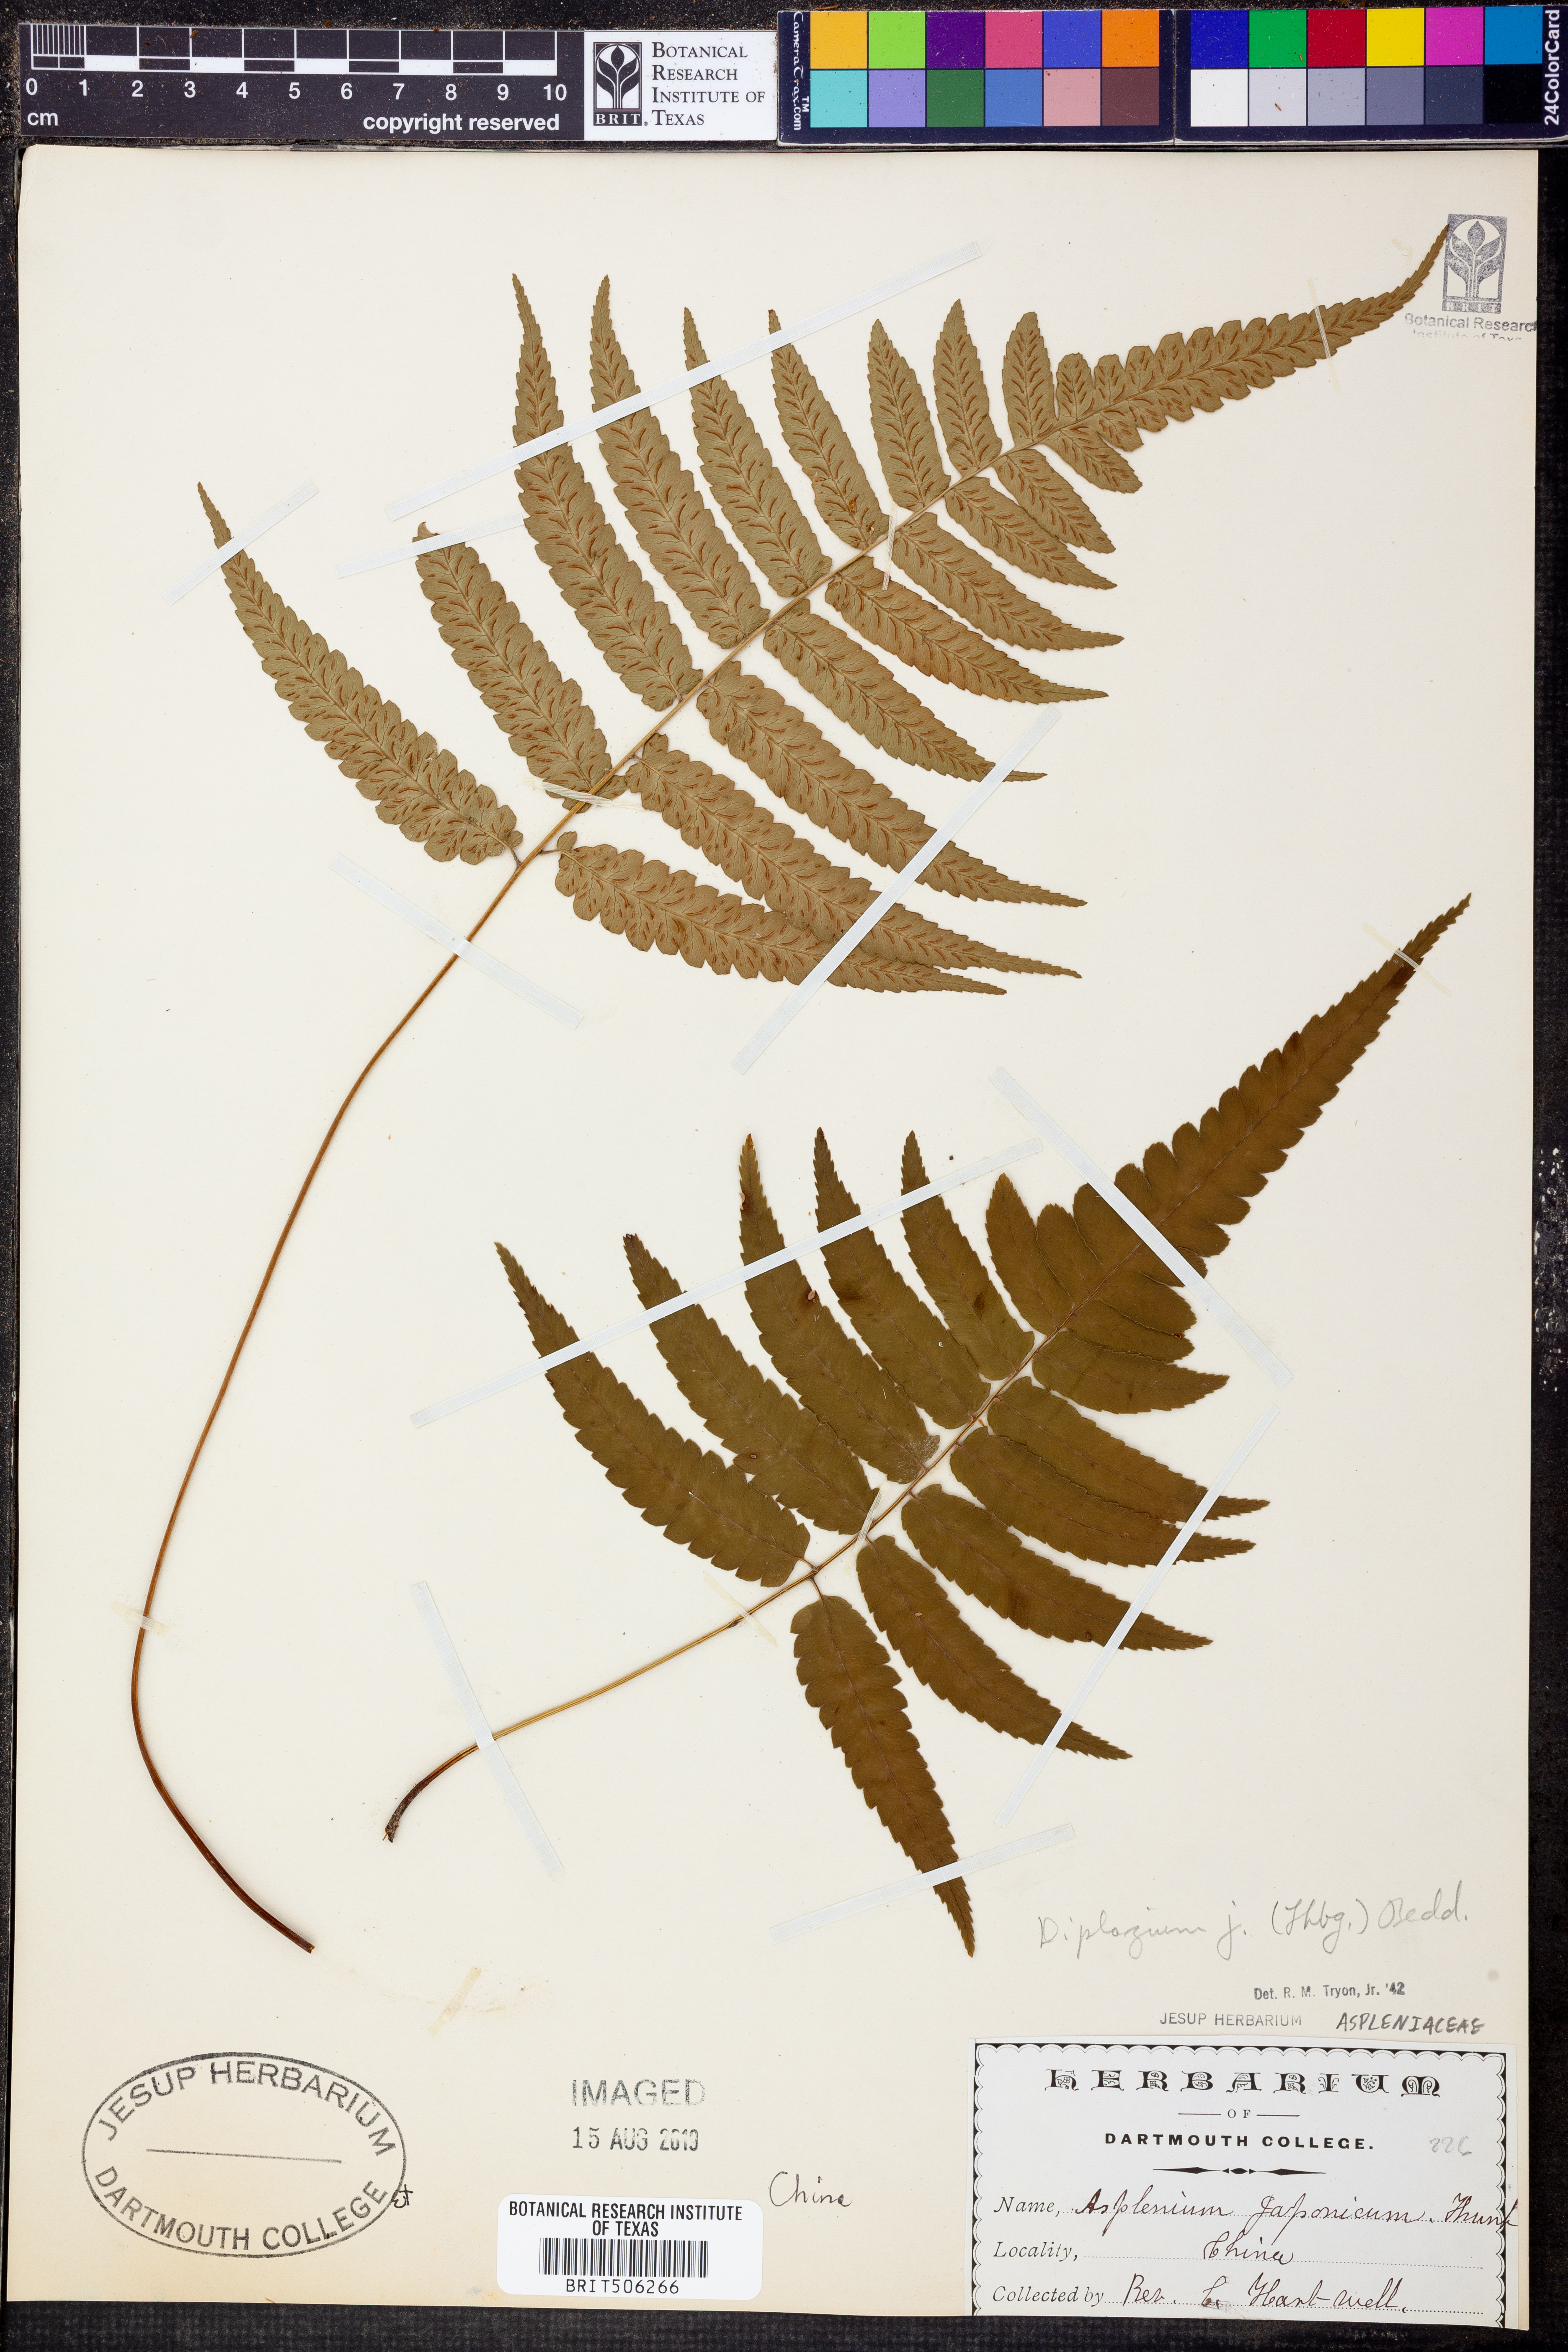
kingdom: Plantae
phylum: Tracheophyta
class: Polypodiopsida
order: Polypodiales
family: Athyriaceae
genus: Diplazium
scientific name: Diplazium japonicum
